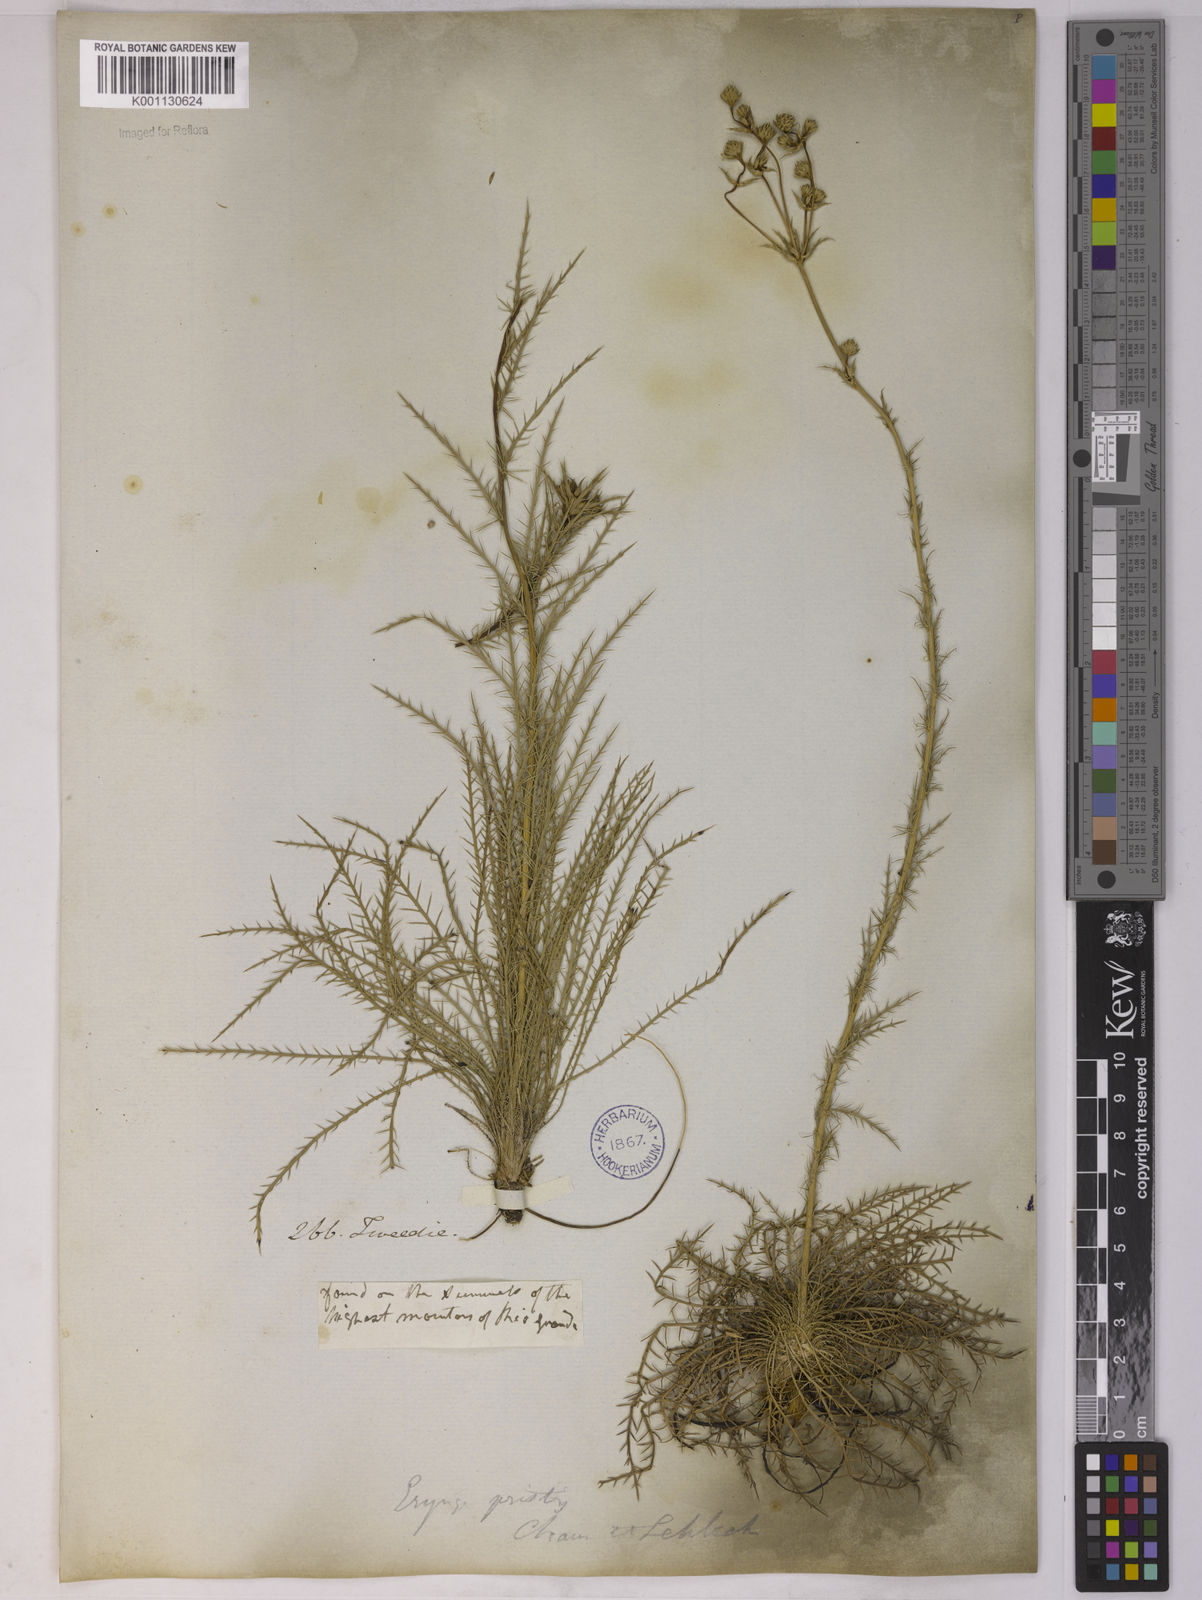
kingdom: Plantae
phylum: Tracheophyta
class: Magnoliopsida
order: Apiales
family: Apiaceae
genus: Eryngium
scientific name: Eryngium pristis
